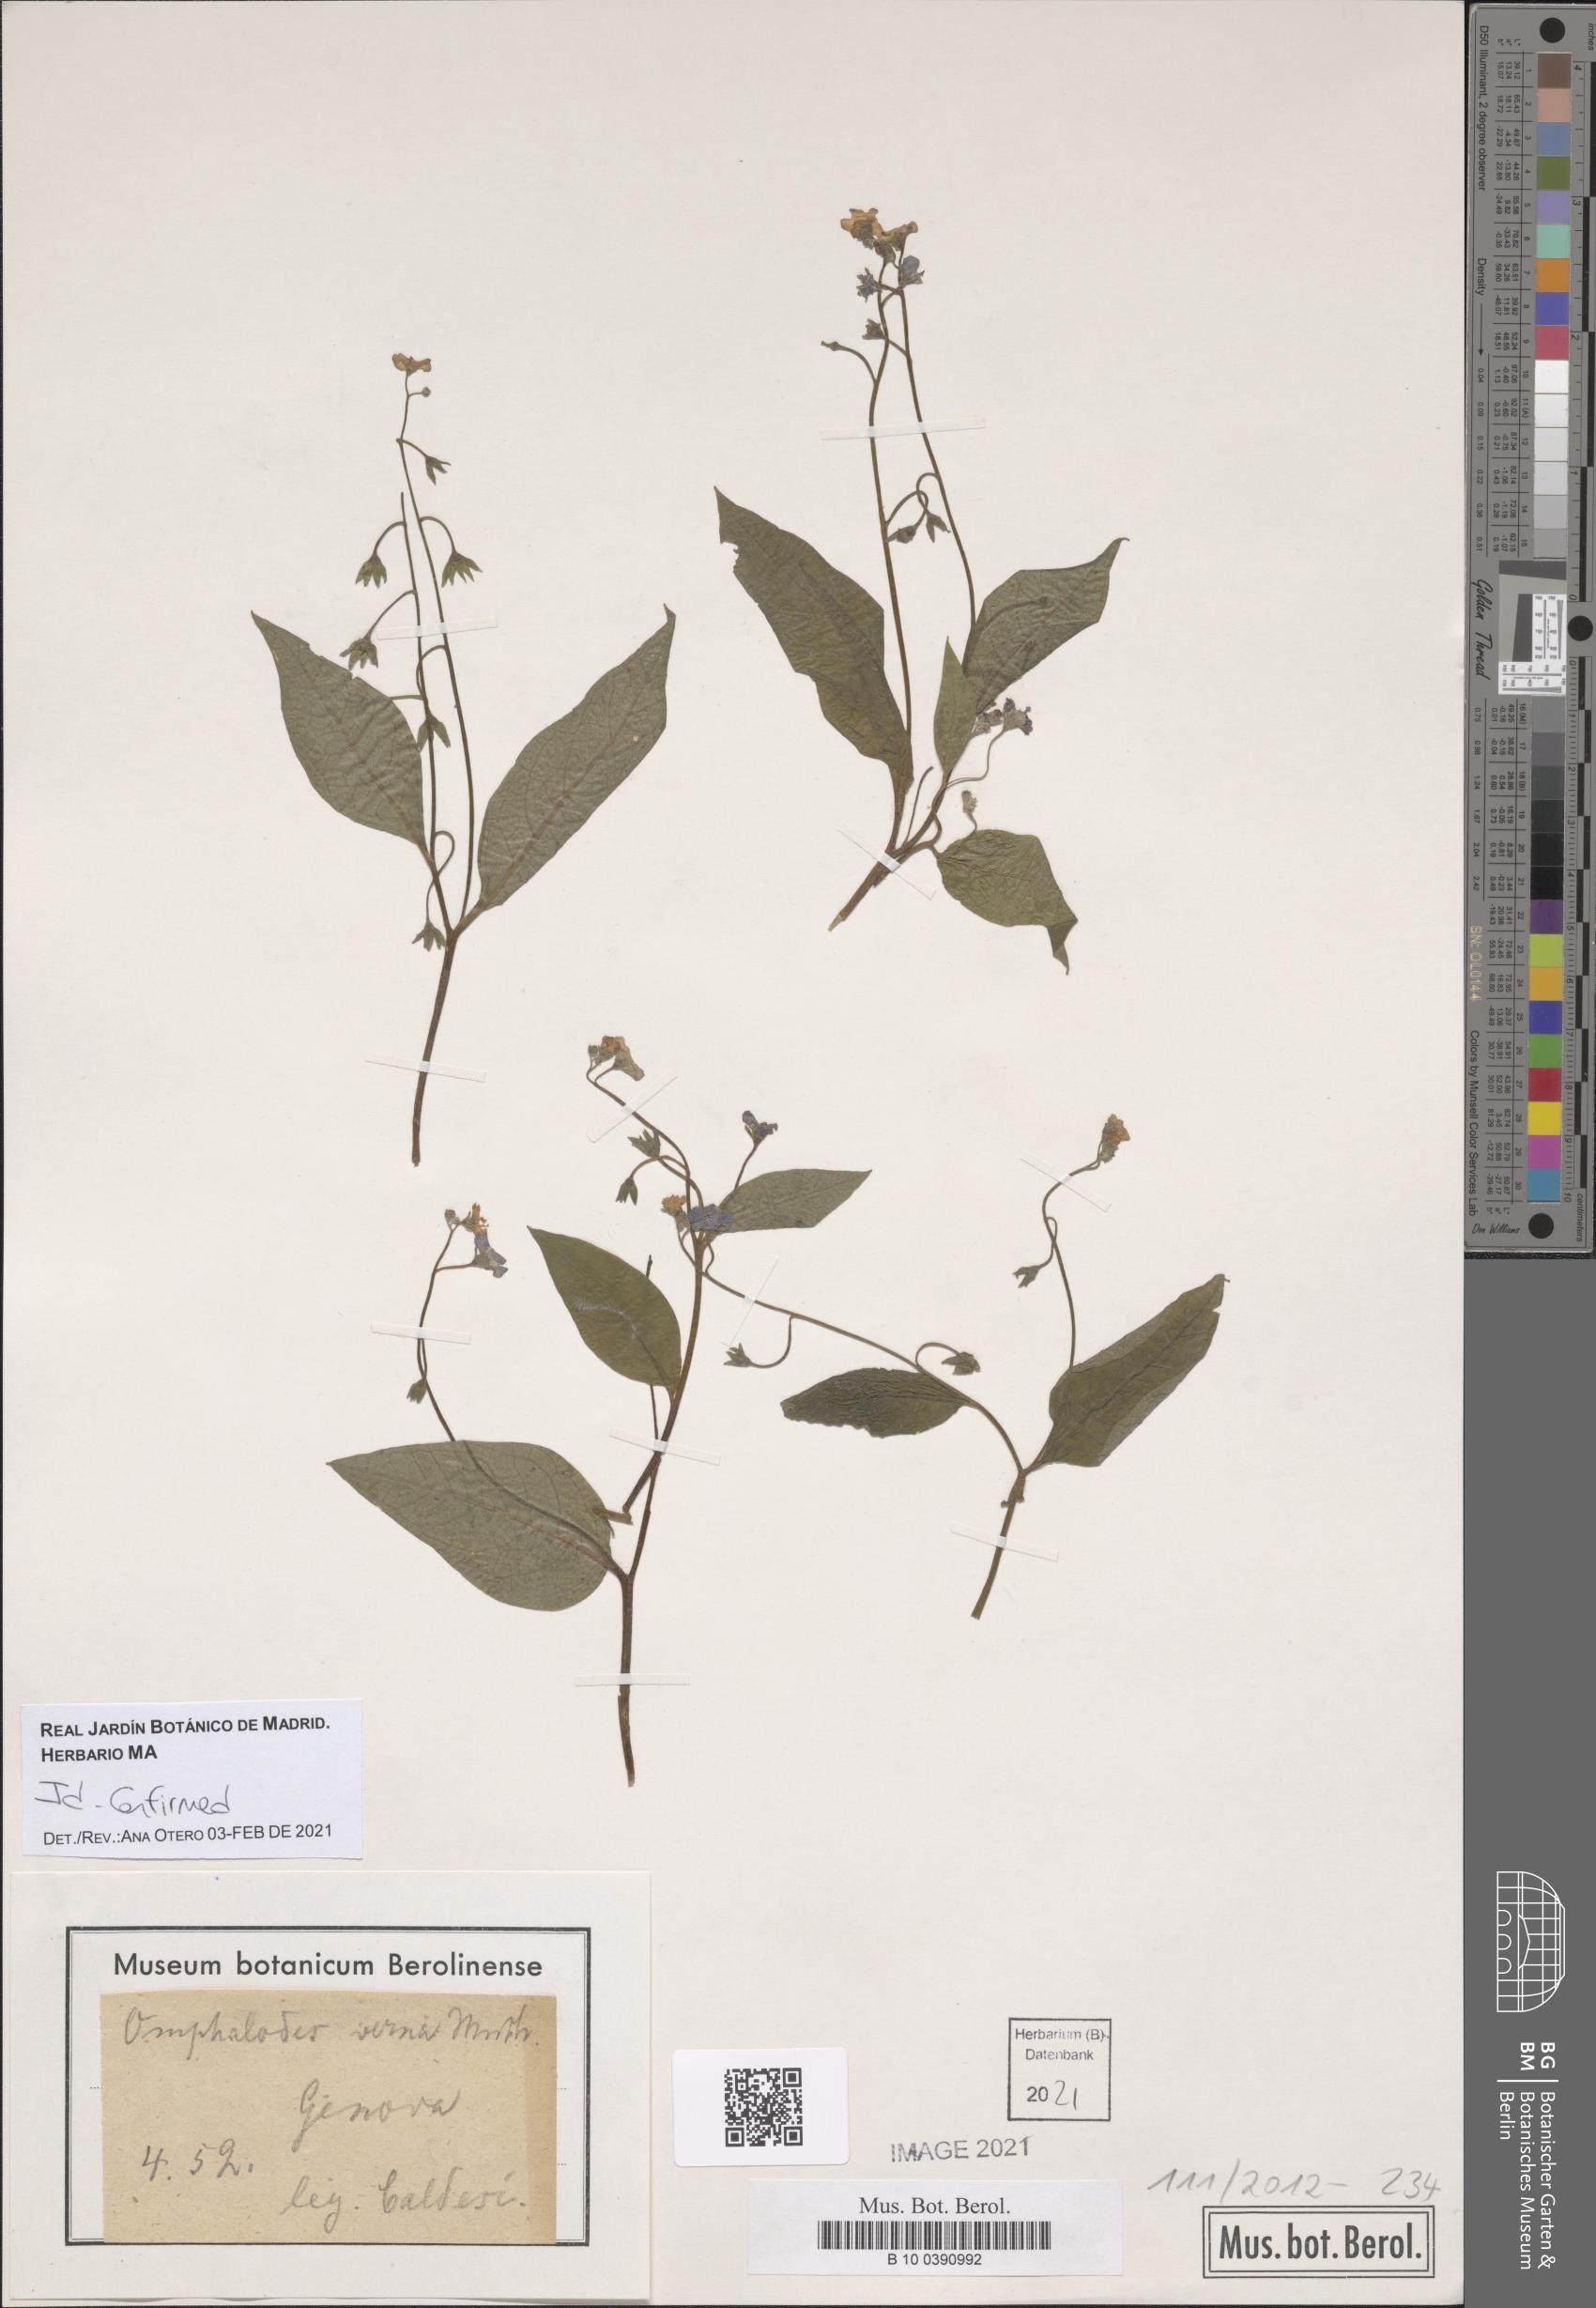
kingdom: Plantae
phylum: Tracheophyta
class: Magnoliopsida
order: Boraginales
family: Boraginaceae
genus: Omphalodes
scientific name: Omphalodes verna
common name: Blue-eyed-mary
